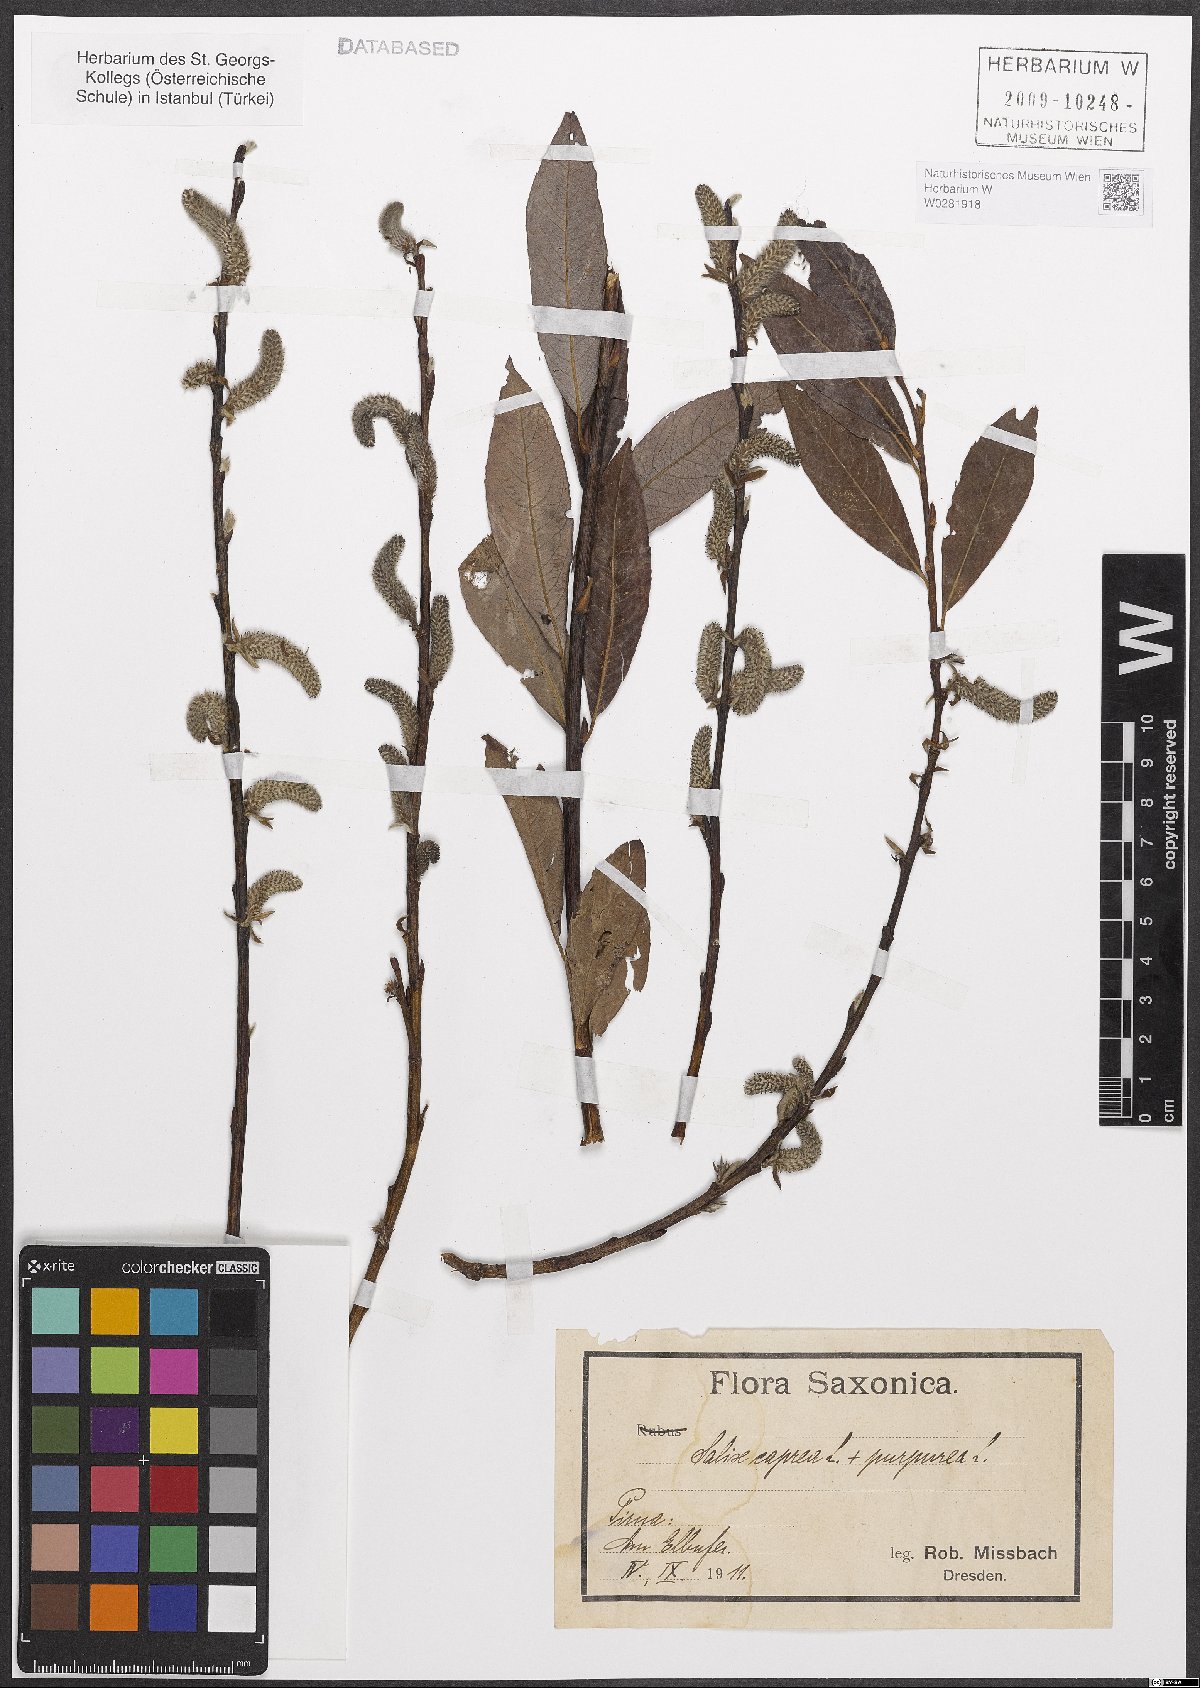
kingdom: Plantae
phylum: Tracheophyta
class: Magnoliopsida
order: Malpighiales
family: Salicaceae
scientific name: Salicaceae
